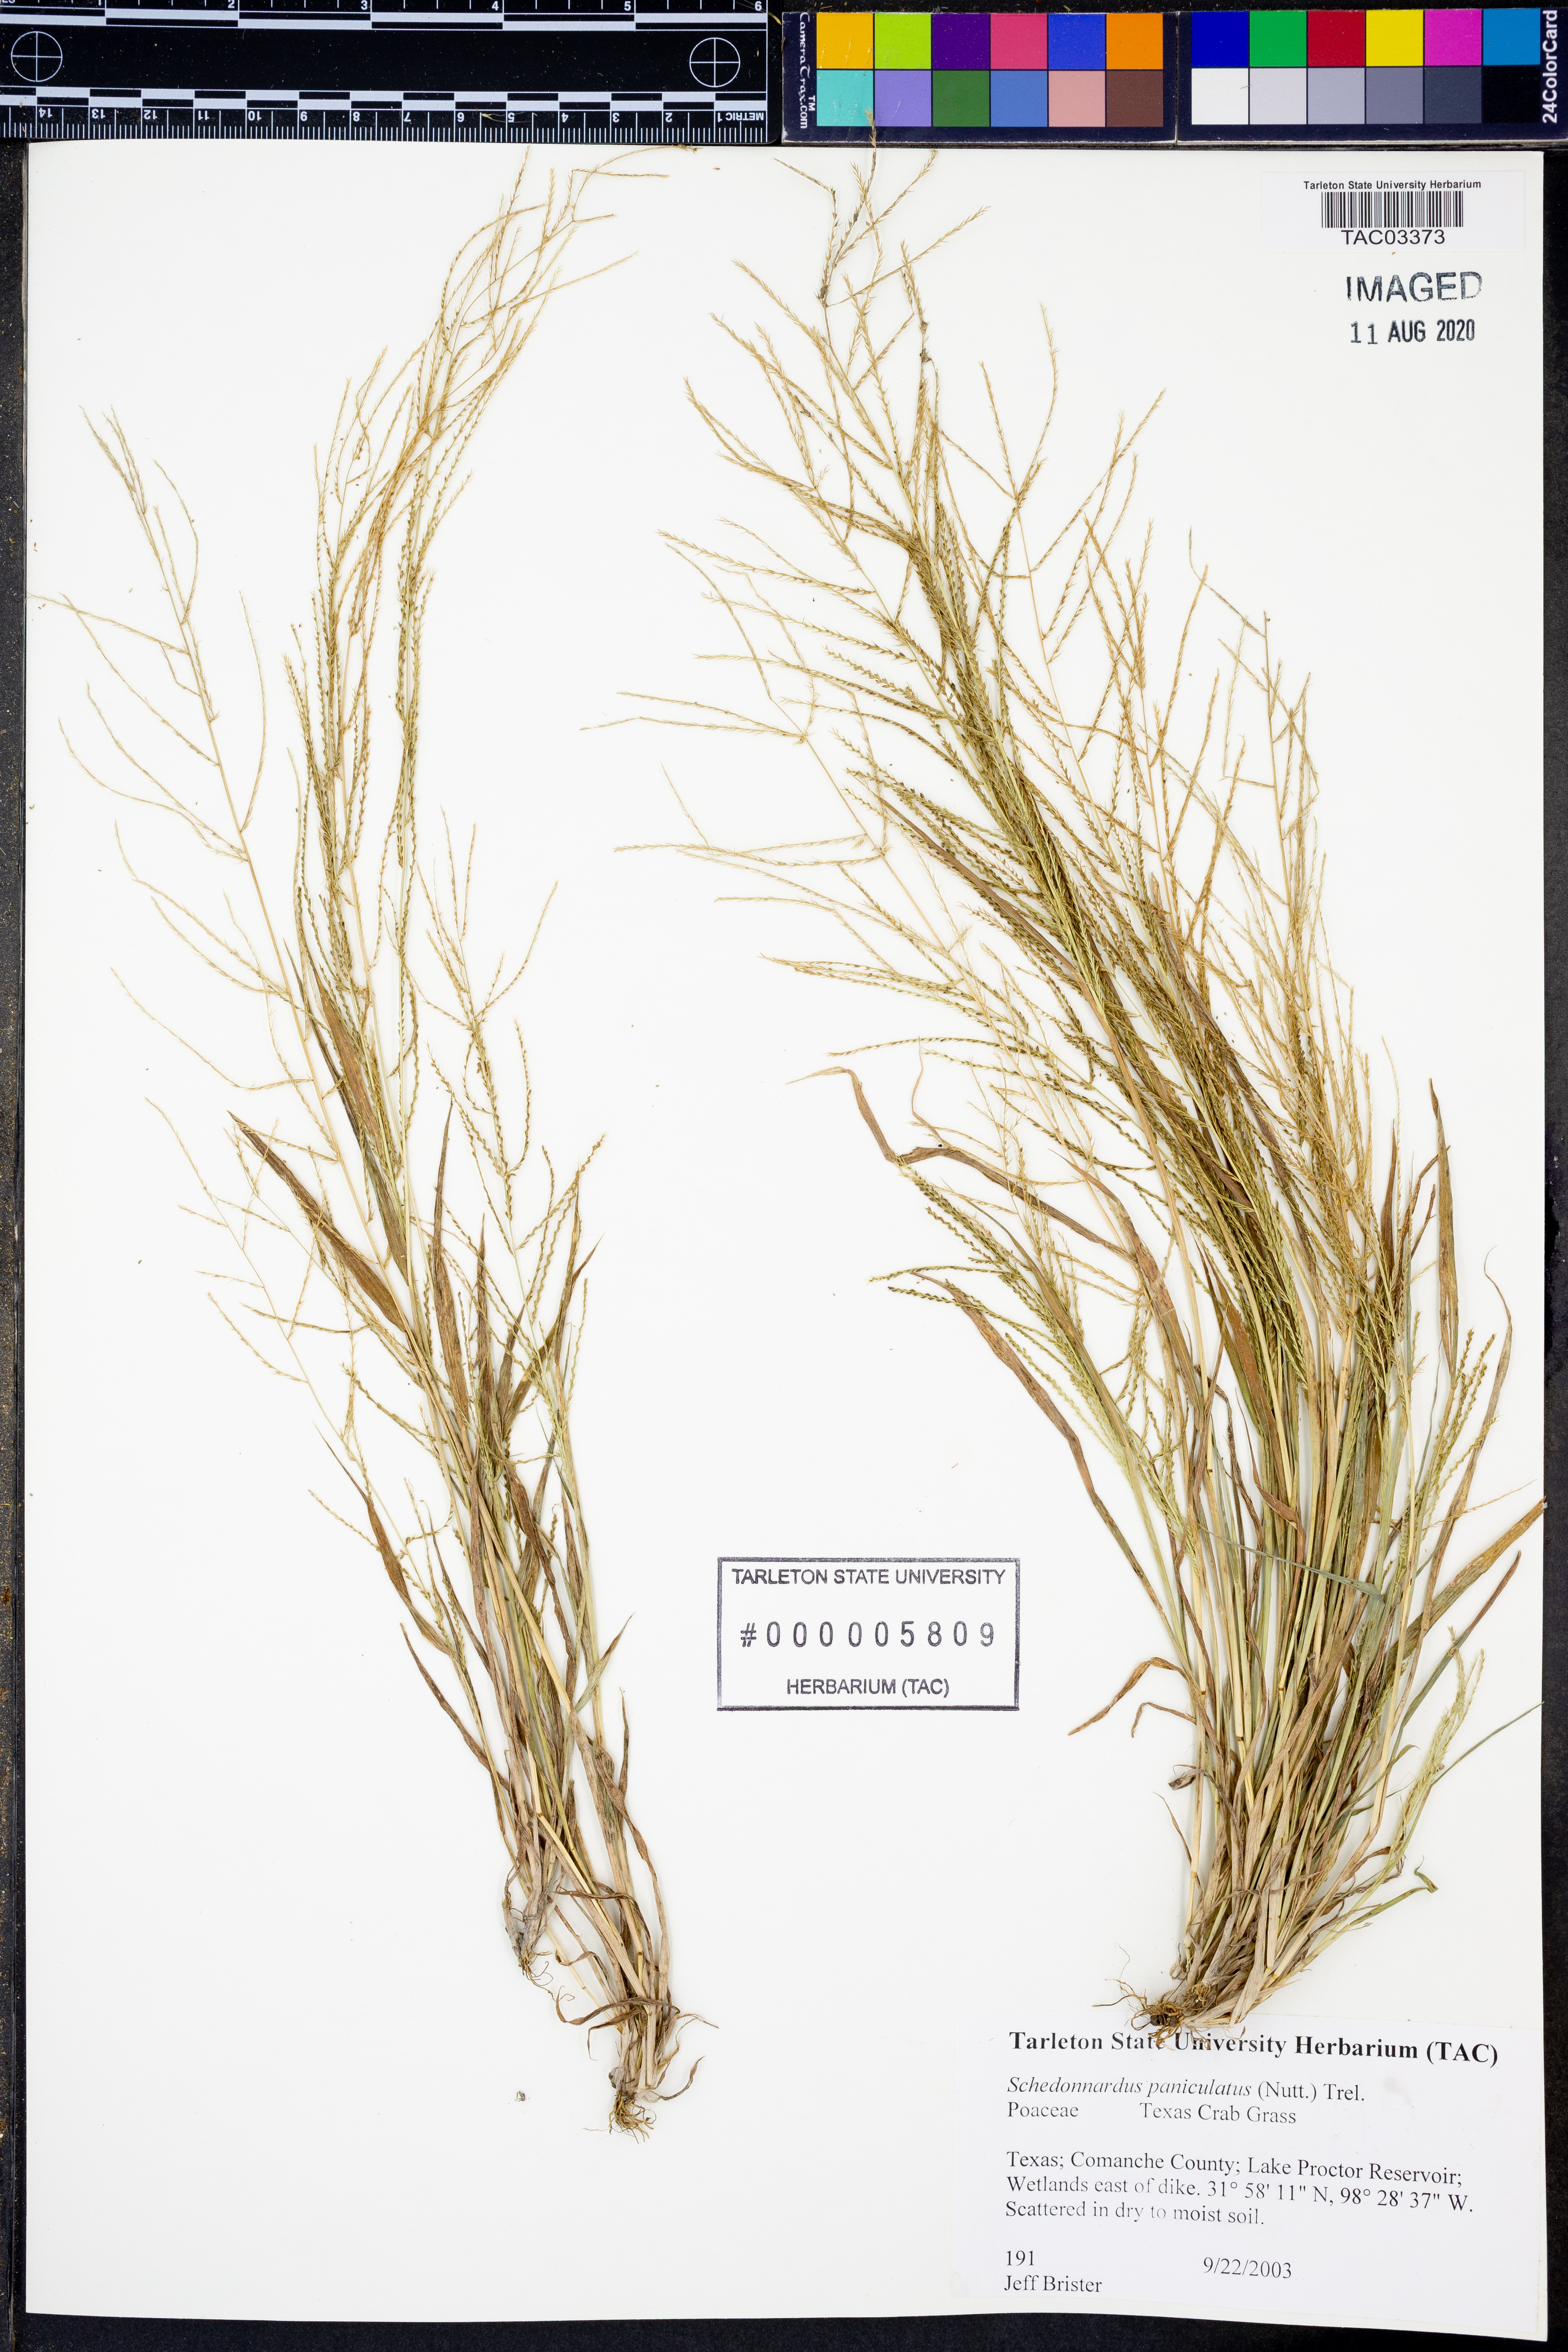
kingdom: Plantae
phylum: Tracheophyta
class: Liliopsida
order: Poales
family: Poaceae
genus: Muhlenbergia
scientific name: Muhlenbergia paniculata
